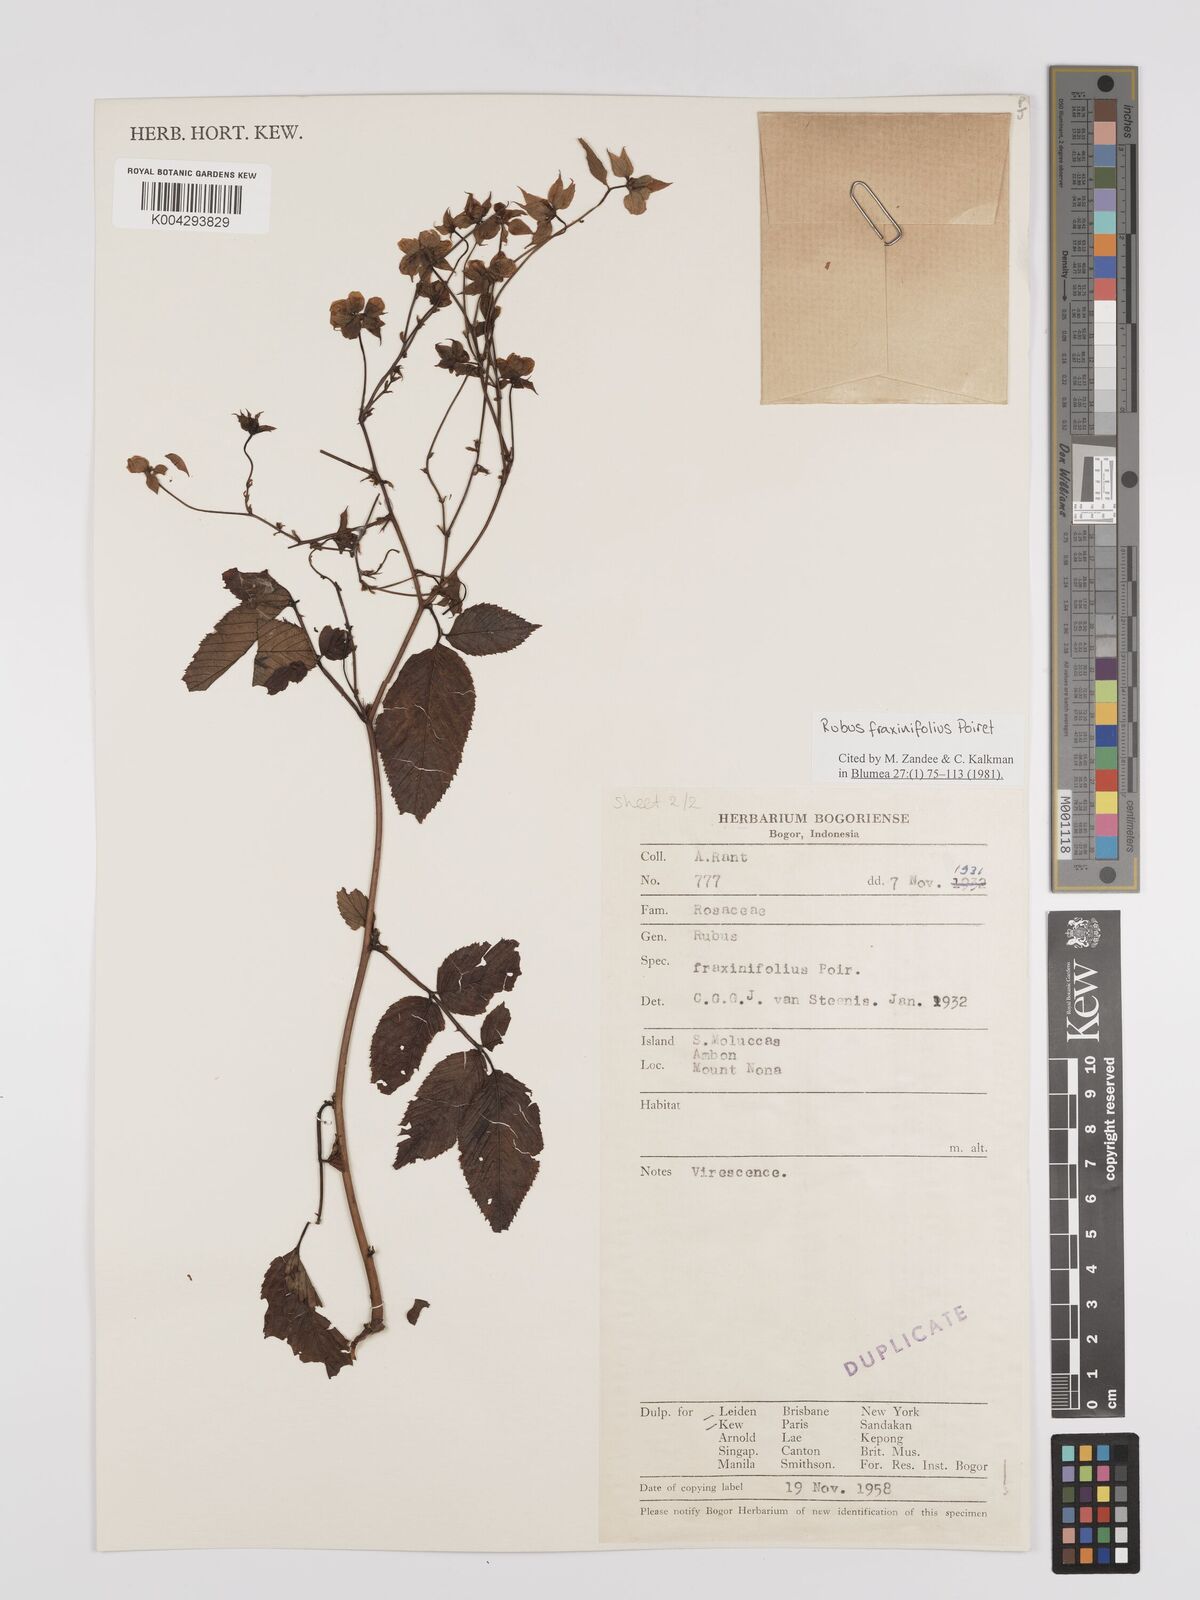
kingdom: Plantae
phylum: Tracheophyta
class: Magnoliopsida
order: Rosales
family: Rosaceae
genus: Rubus
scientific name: Rubus fraxinifolius
